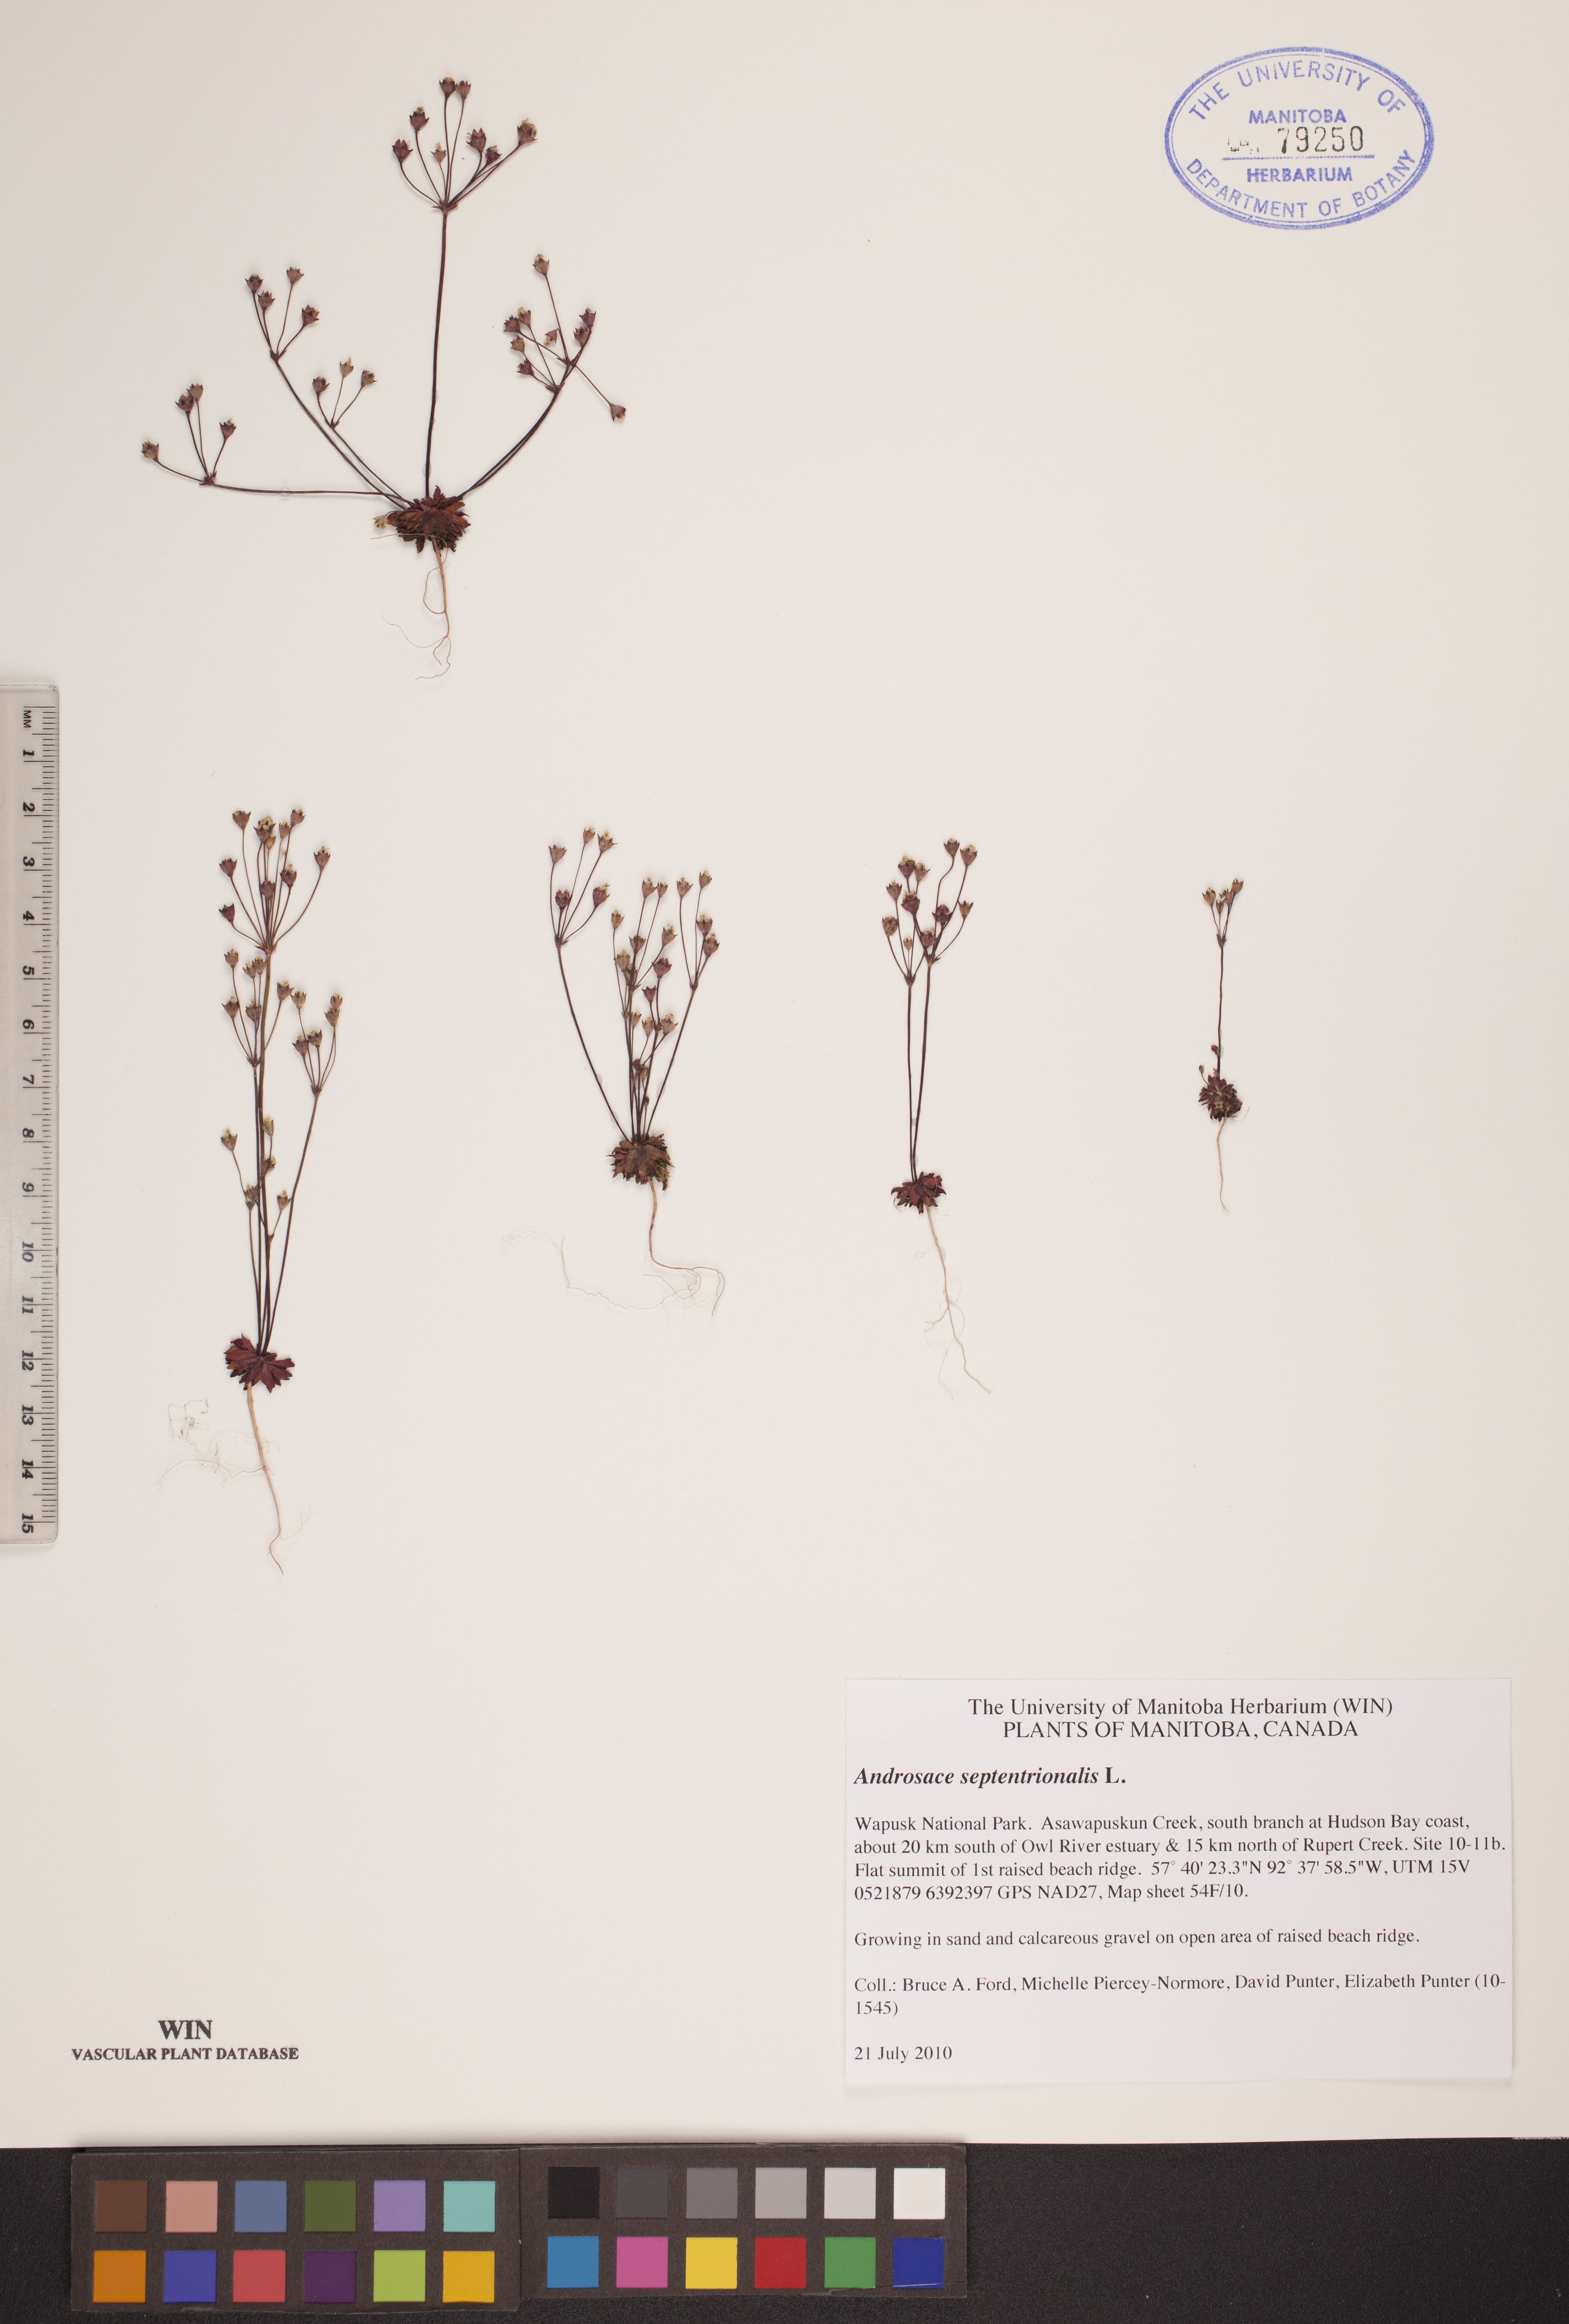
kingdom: Plantae
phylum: Tracheophyta
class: Magnoliopsida
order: Ericales
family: Primulaceae
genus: Androsace
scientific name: Androsace septentrionalis
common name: Hairy northern fairy-candelabra
